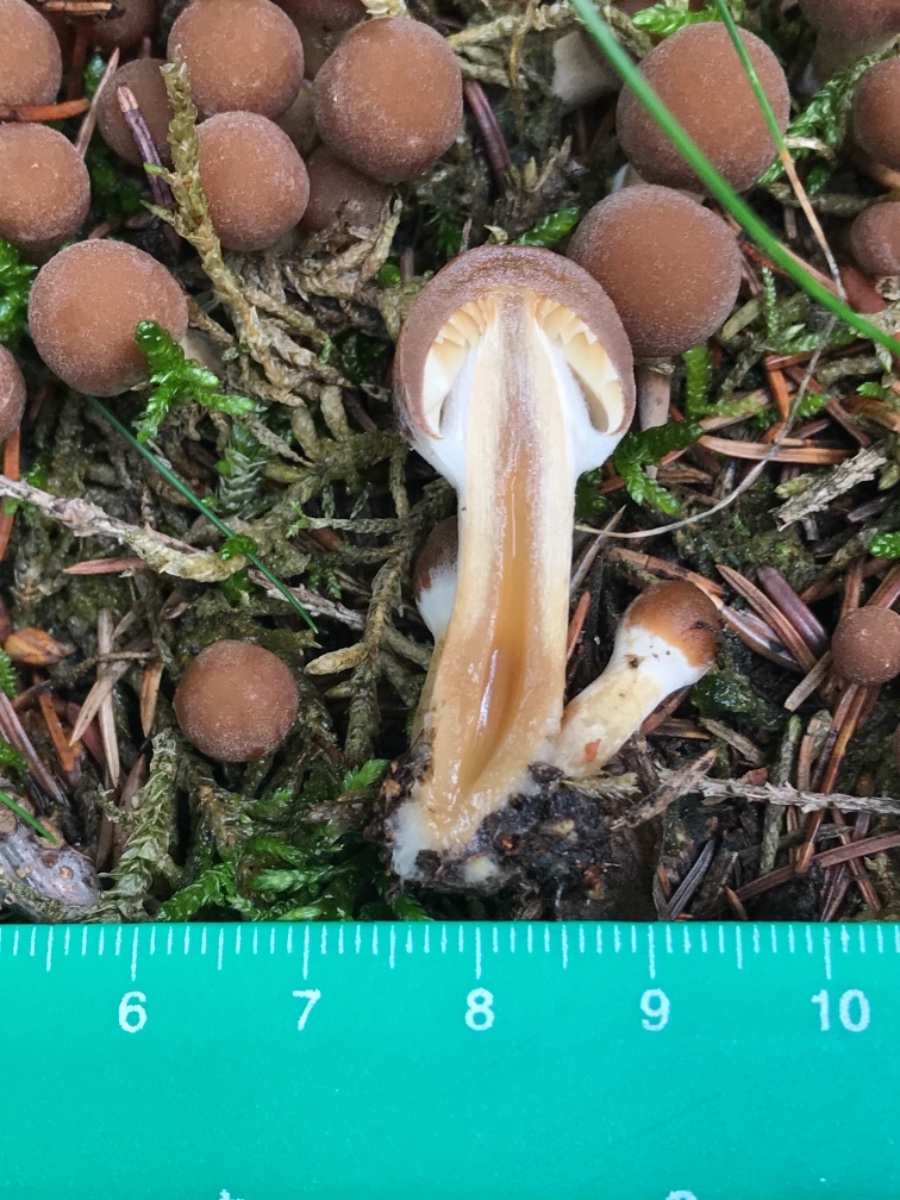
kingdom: Fungi
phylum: Basidiomycota
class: Agaricomycetes
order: Agaricales
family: Psathyrellaceae
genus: Psathyrella
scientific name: Psathyrella piluliformis
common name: lysstokket mørkhat
